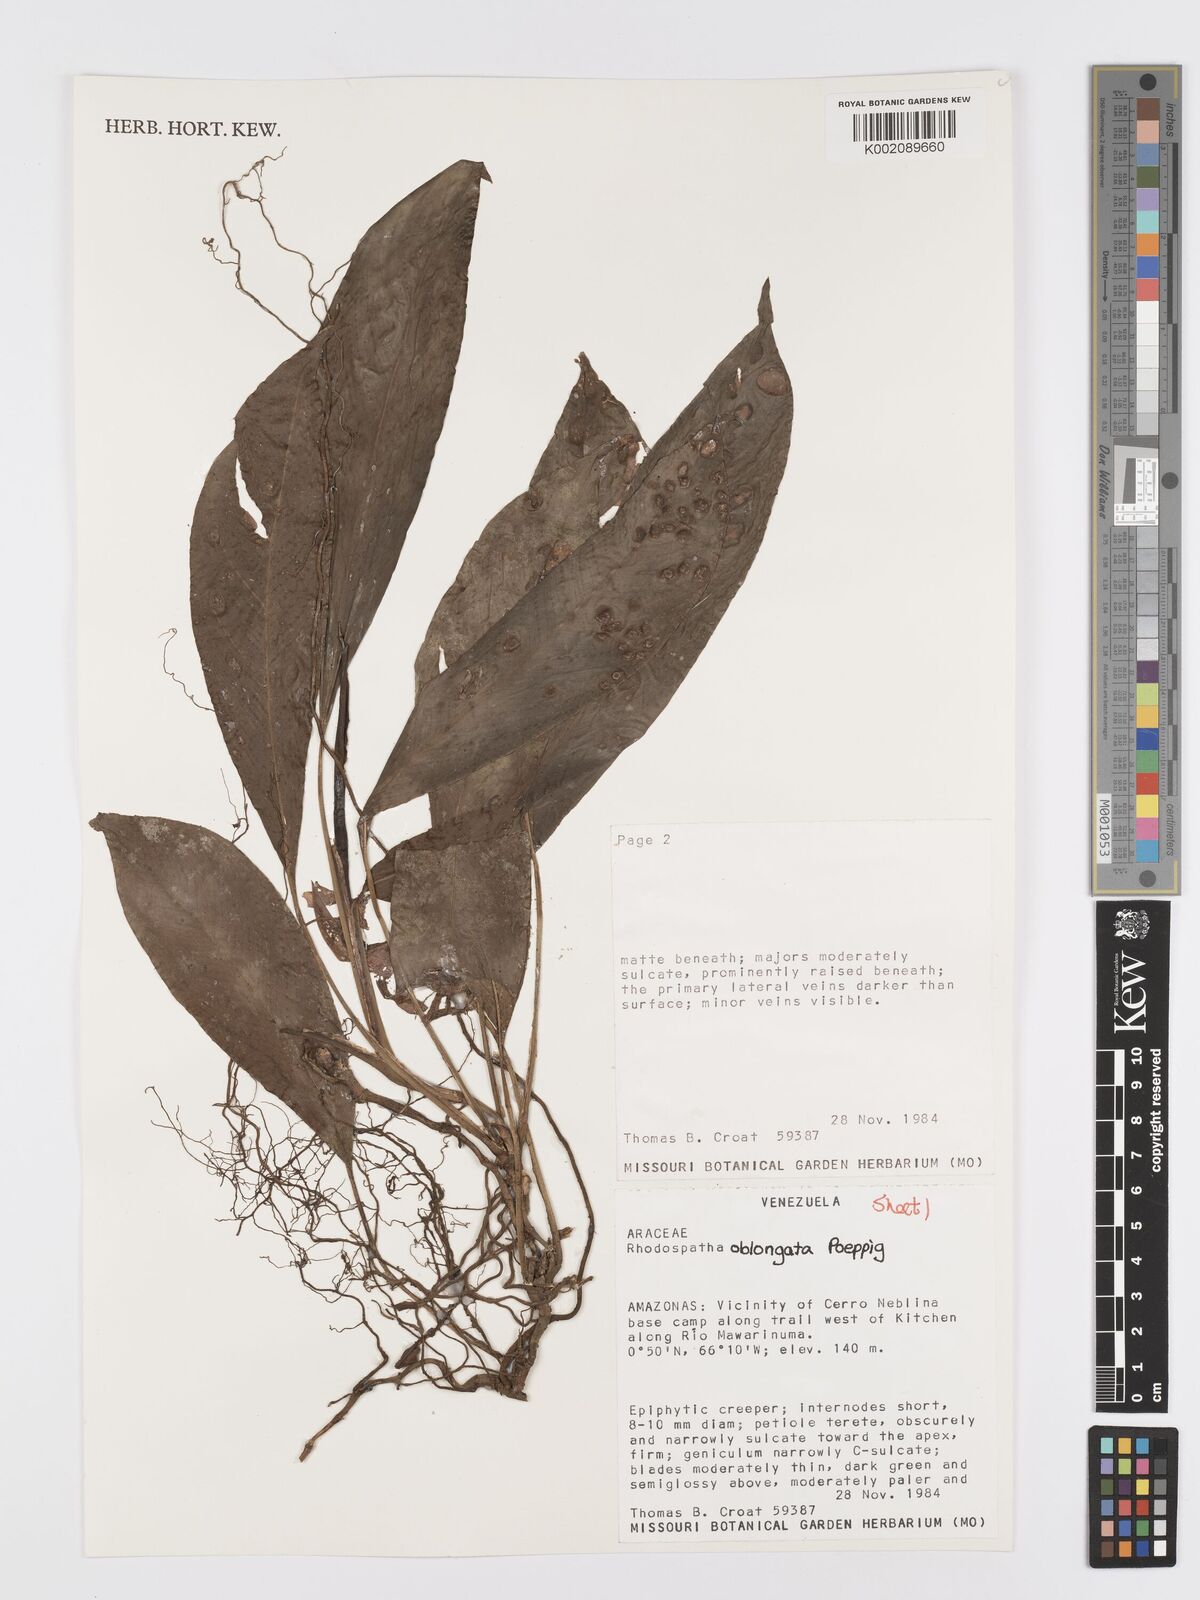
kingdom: Plantae
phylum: Tracheophyta
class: Liliopsida
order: Alismatales
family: Araceae
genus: Rhodospatha
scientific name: Rhodospatha oblongata
